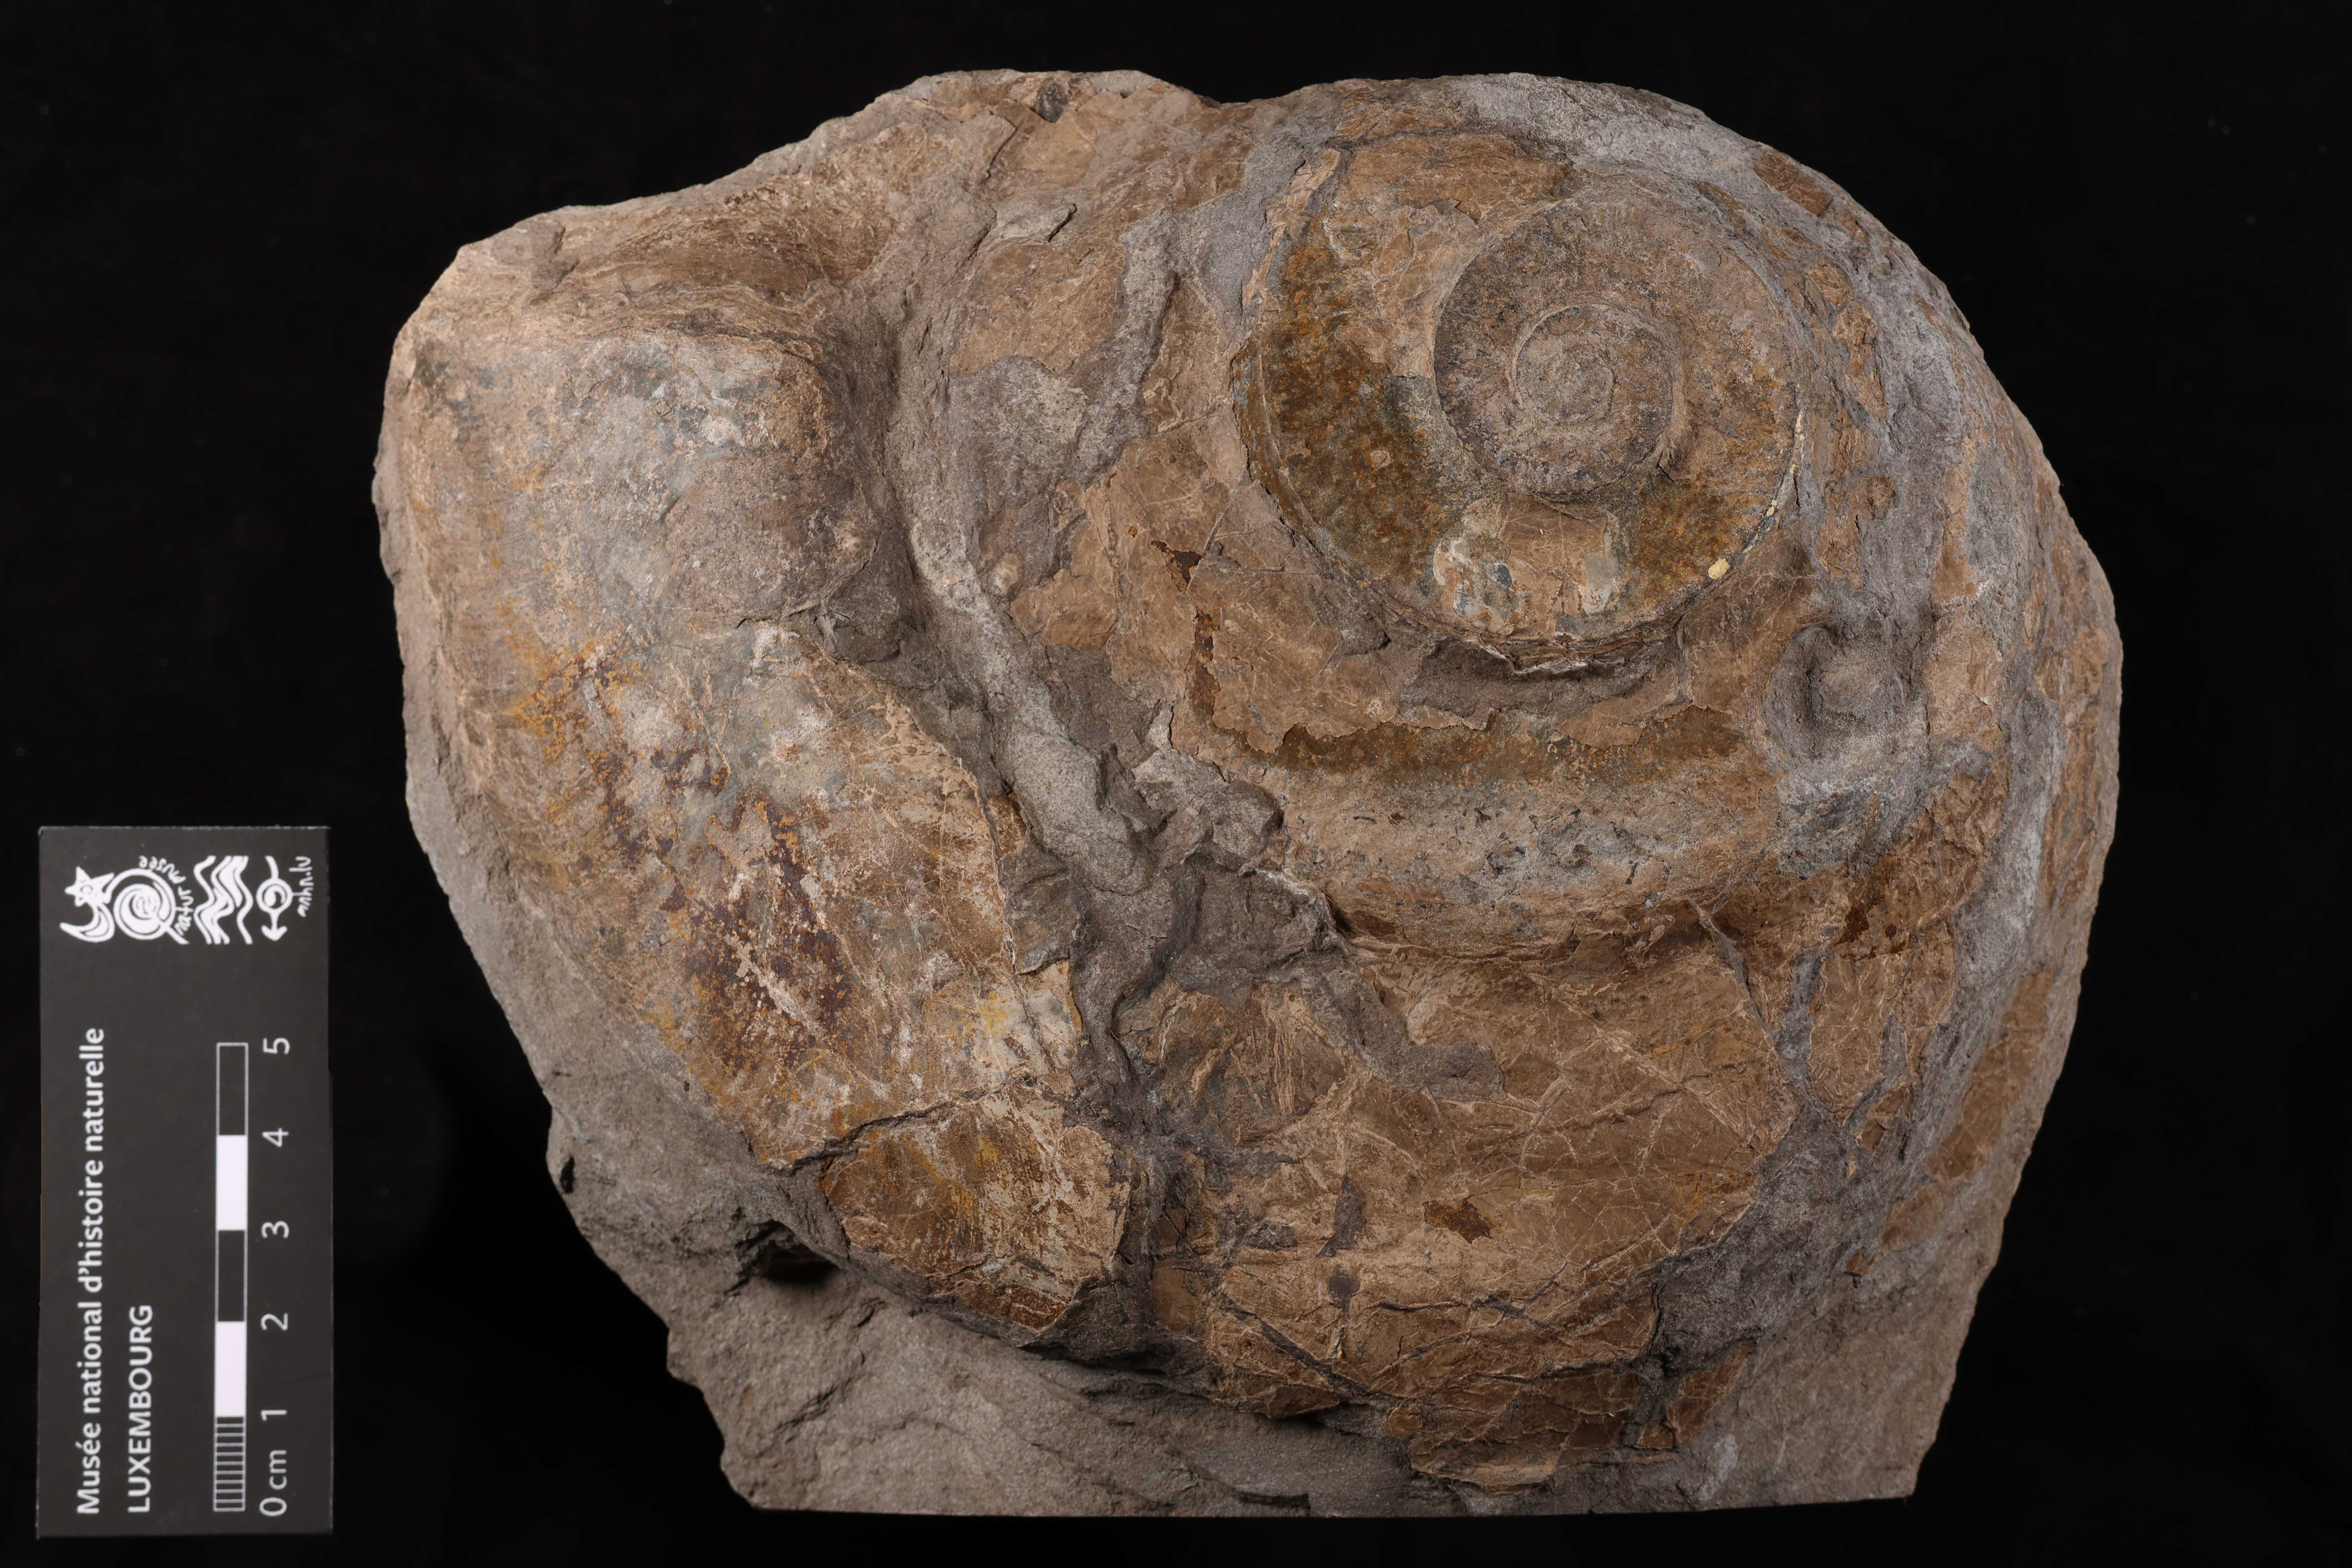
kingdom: Animalia
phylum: Mollusca
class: Cephalopoda
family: Hildoceratidae
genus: Hildaites
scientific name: Hildaites murleyi
